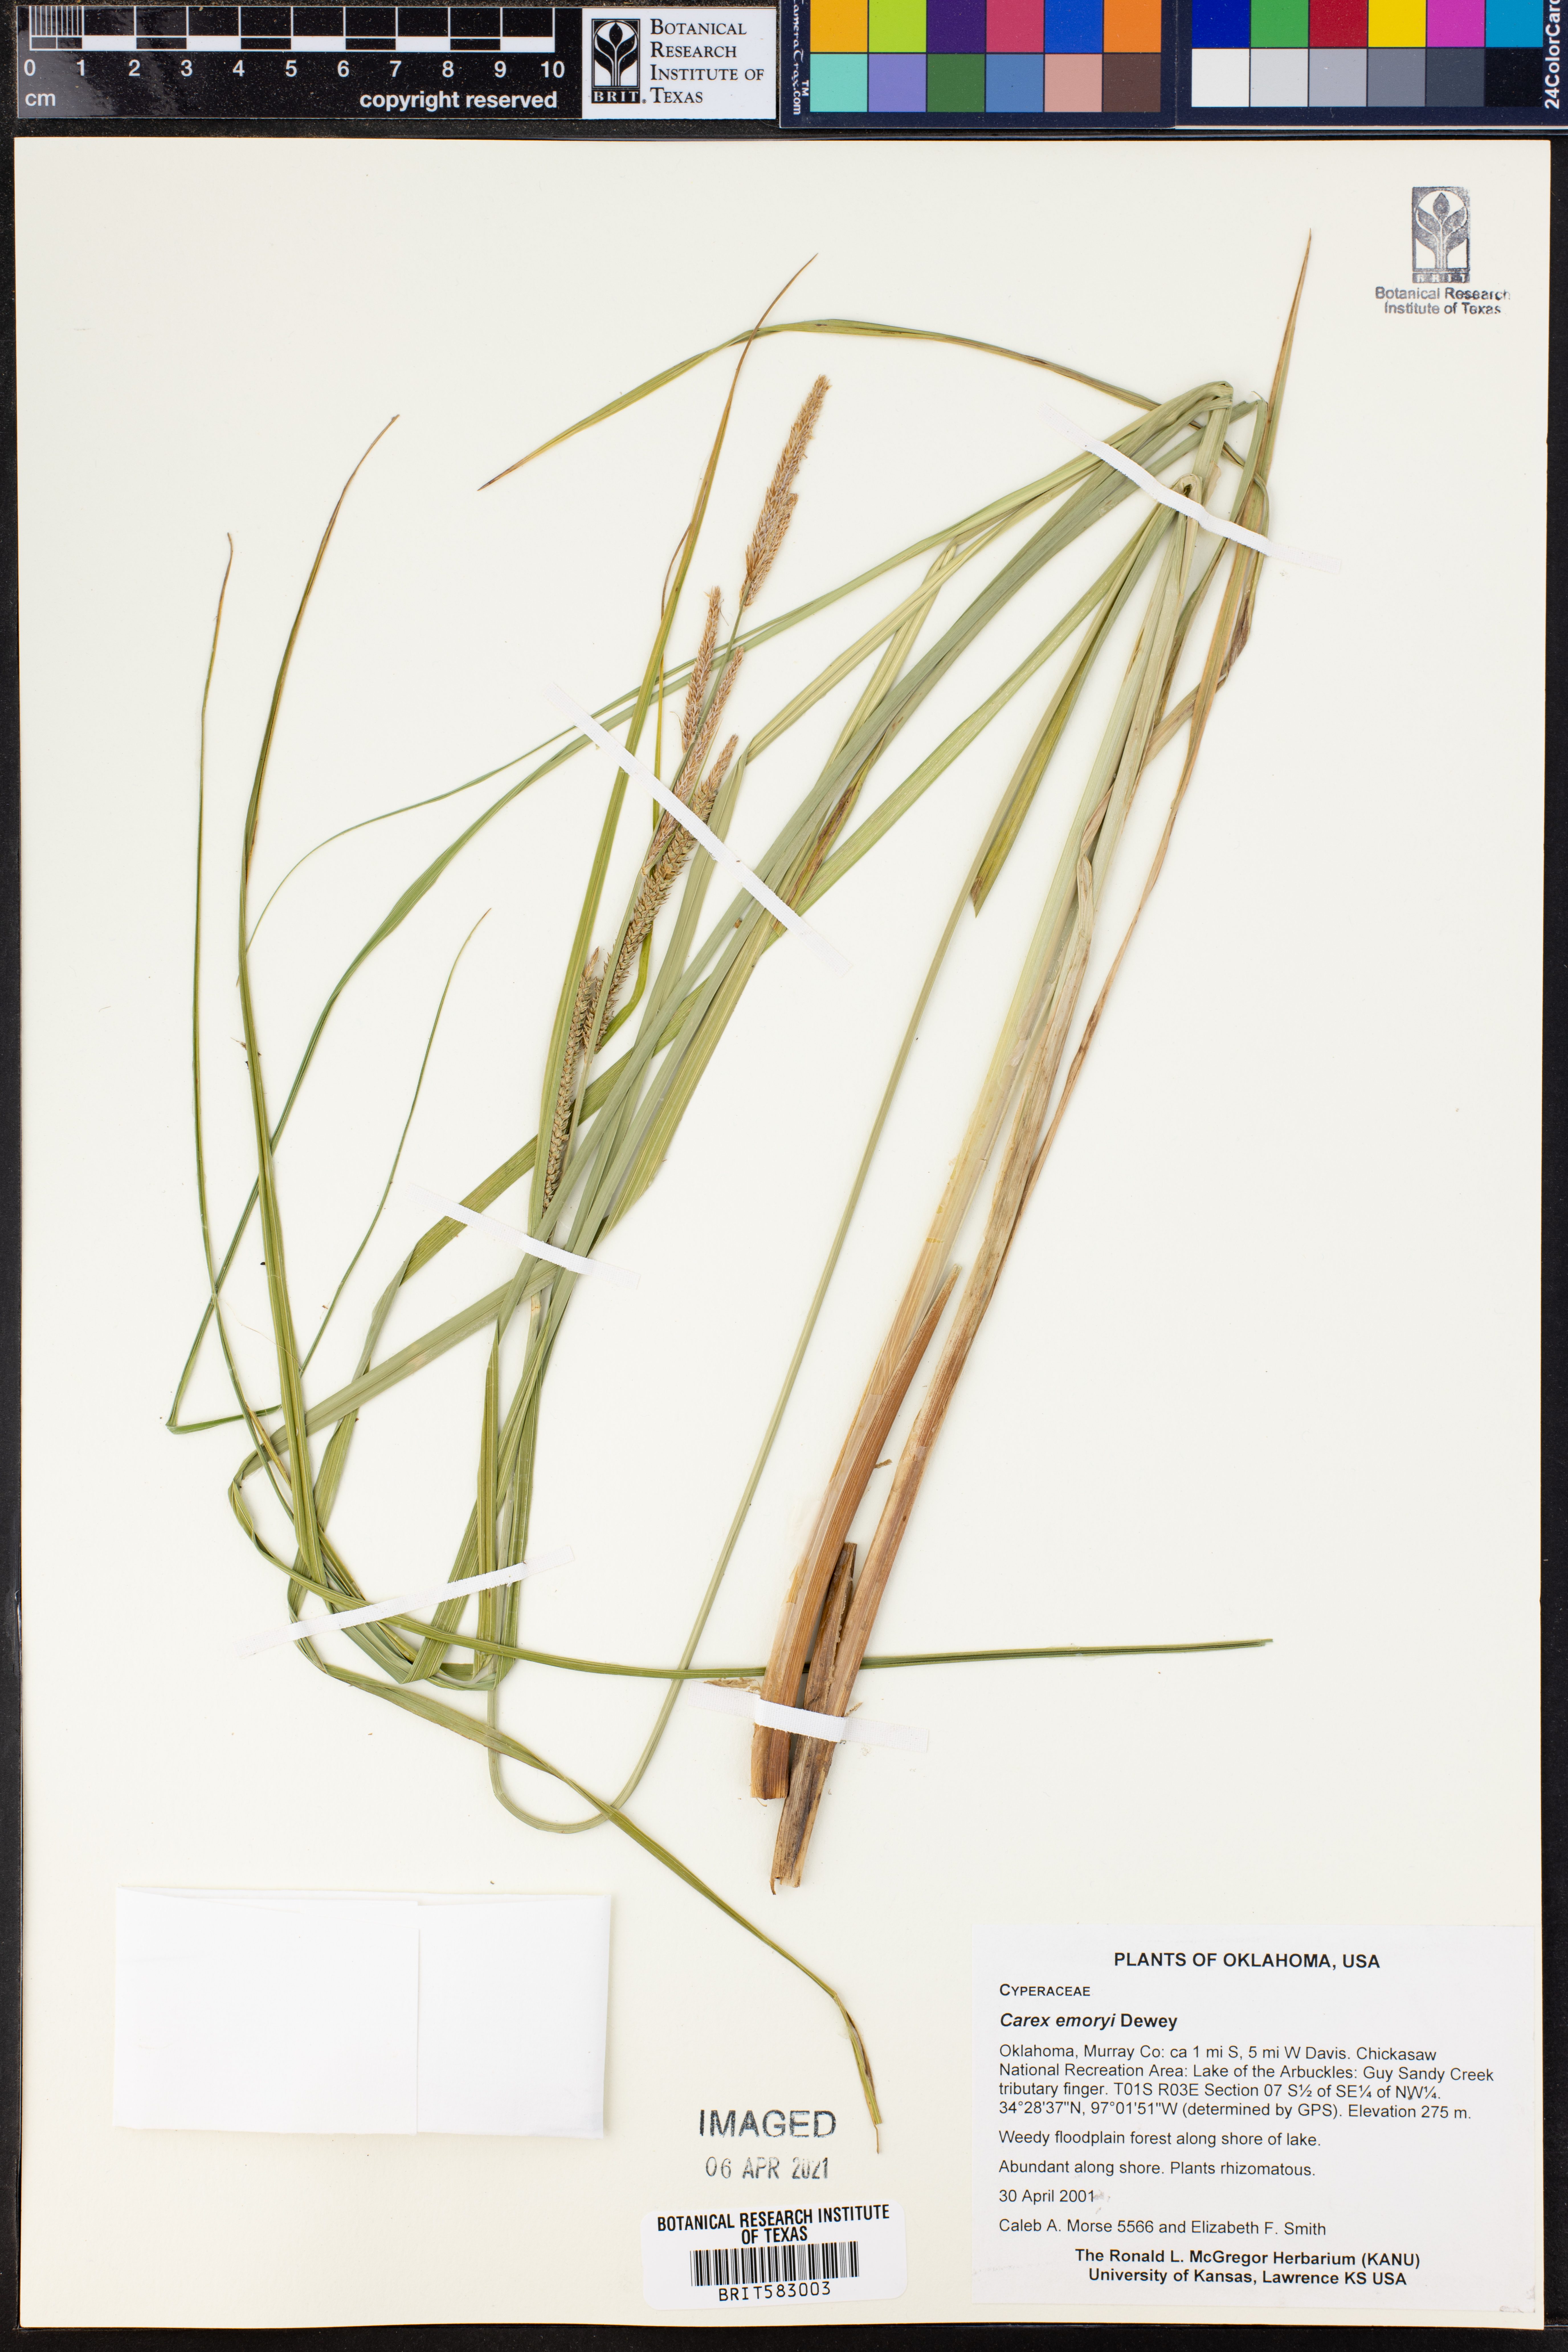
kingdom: Plantae
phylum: Tracheophyta
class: Liliopsida
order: Poales
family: Cyperaceae
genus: Carex
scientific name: Carex emoryi
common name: Emory's sedge
